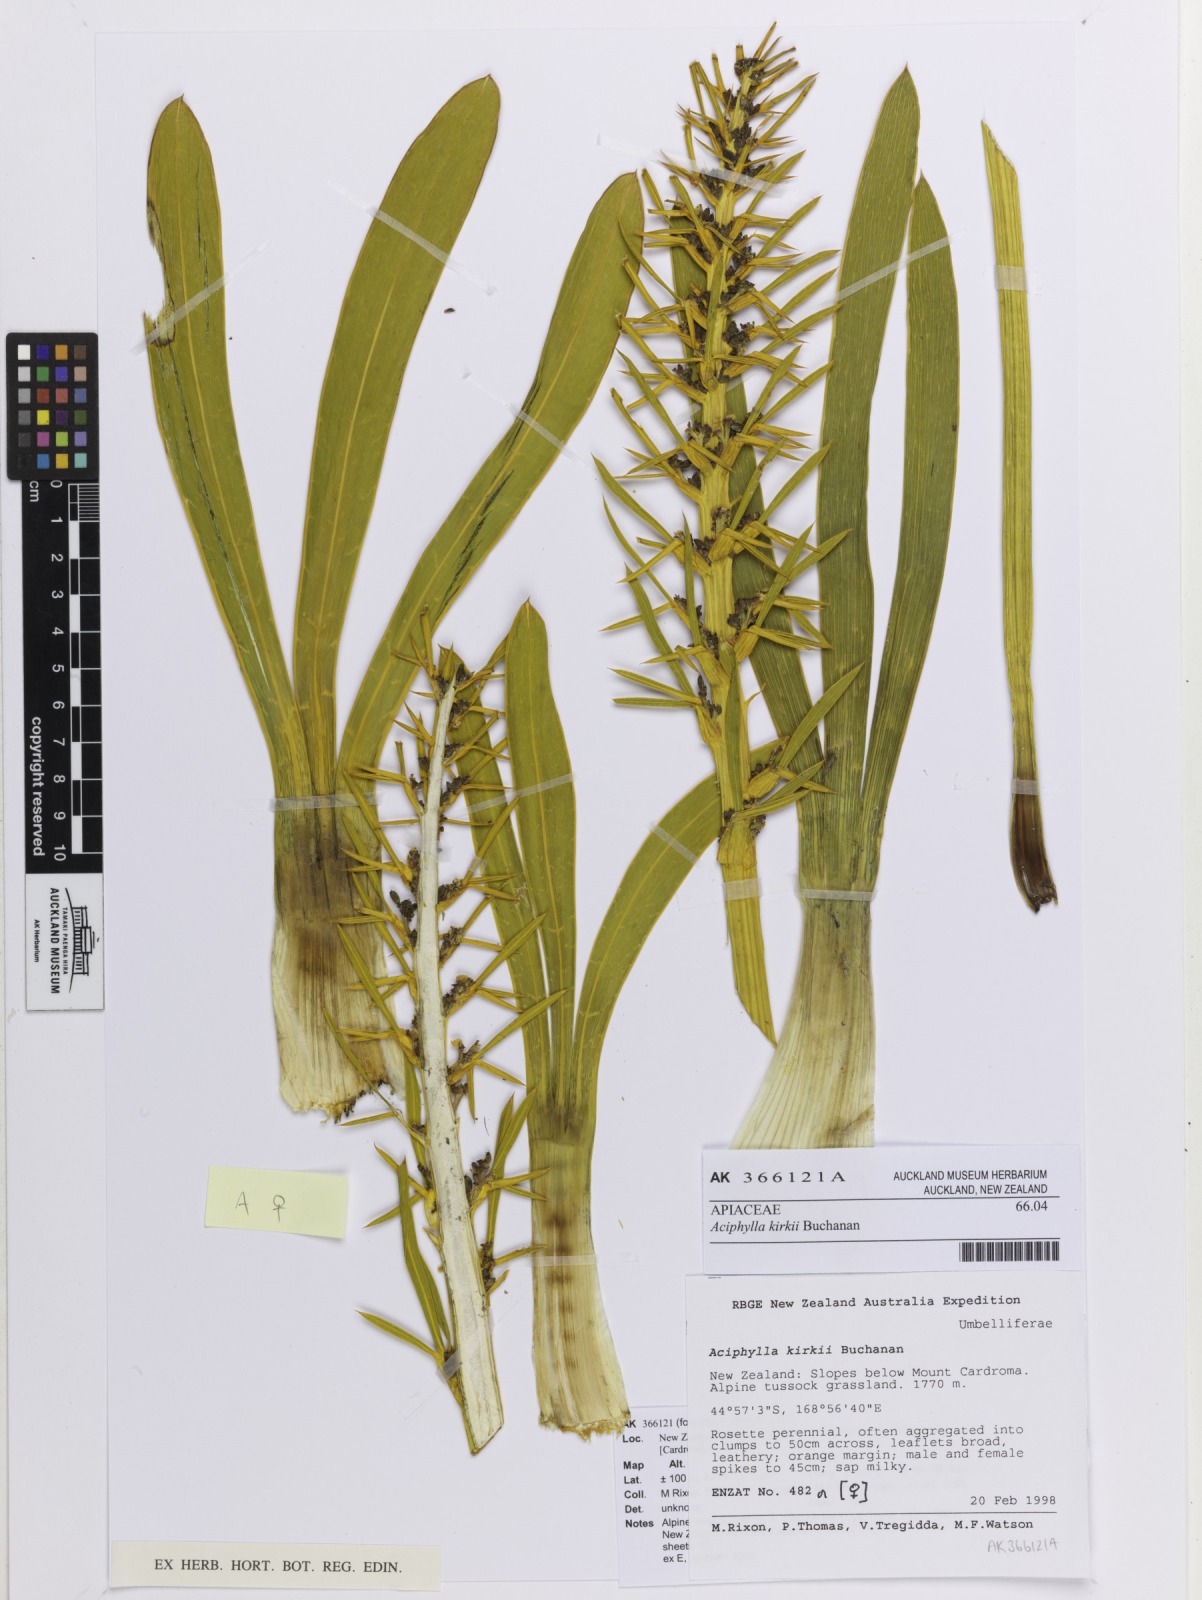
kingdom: Plantae
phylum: Tracheophyta
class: Magnoliopsida
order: Apiales
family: Apiaceae
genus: Aciphylla
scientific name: Aciphylla kirkii
